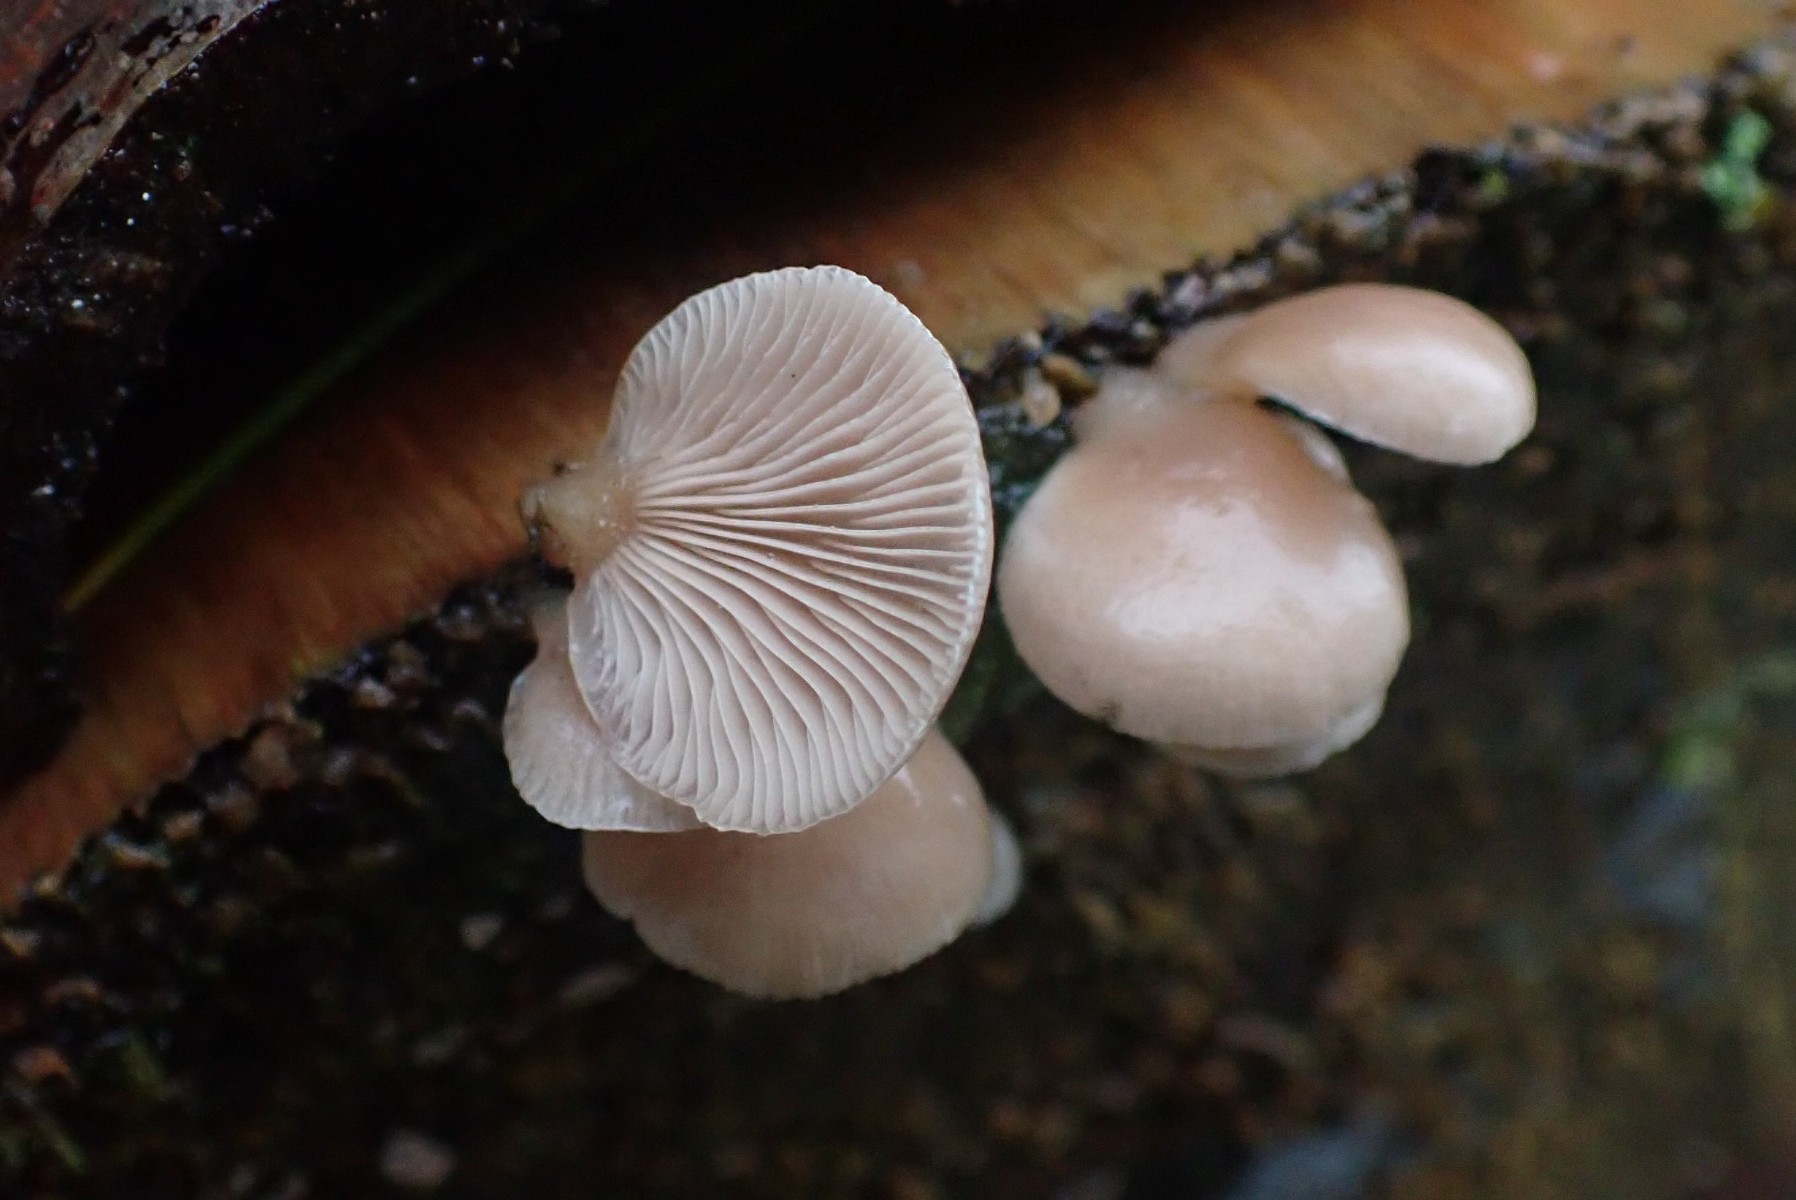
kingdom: Fungi
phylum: Basidiomycota
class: Agaricomycetes
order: Agaricales
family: Mycenaceae
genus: Panellus
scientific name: Panellus mitis
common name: mild epaulethat
